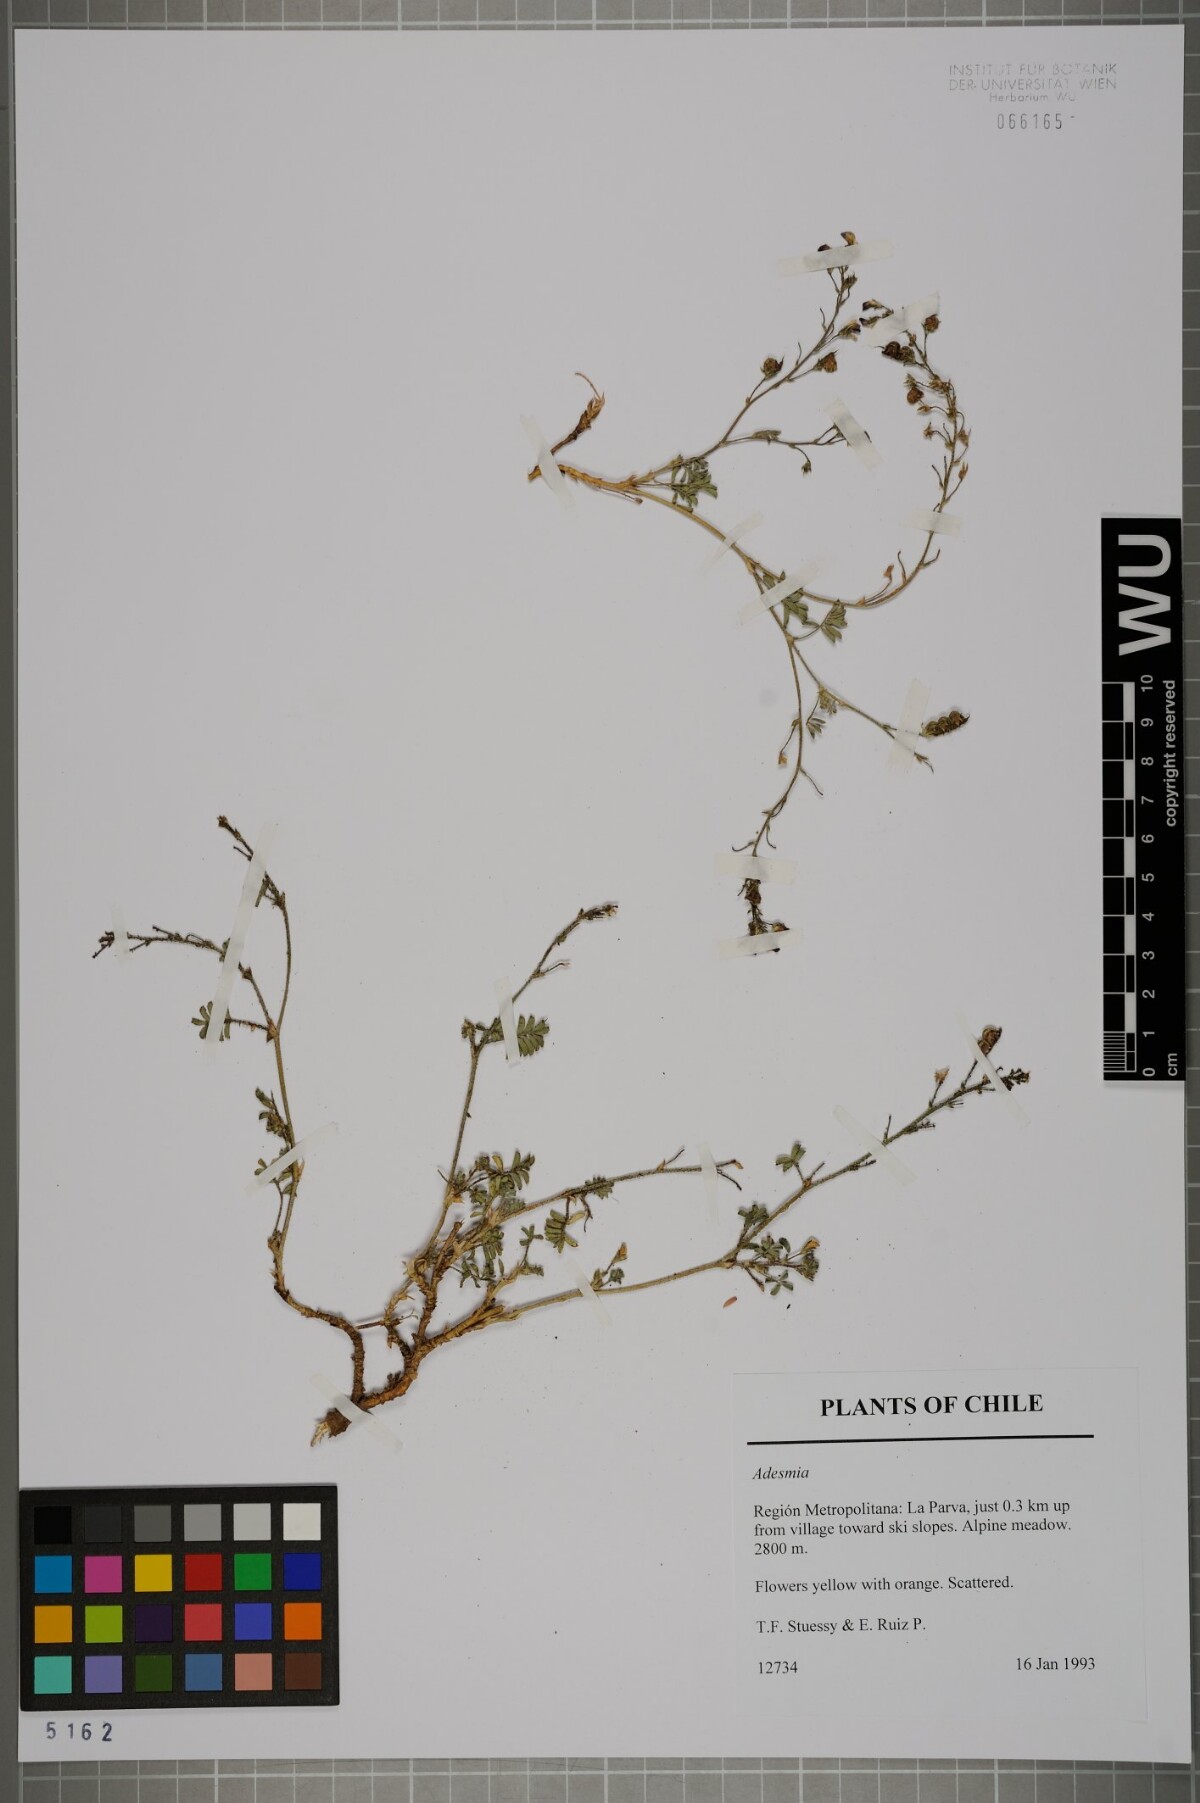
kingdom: Plantae
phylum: Tracheophyta
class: Magnoliopsida
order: Fabales
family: Fabaceae
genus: Adesmia
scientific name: Adesmia
